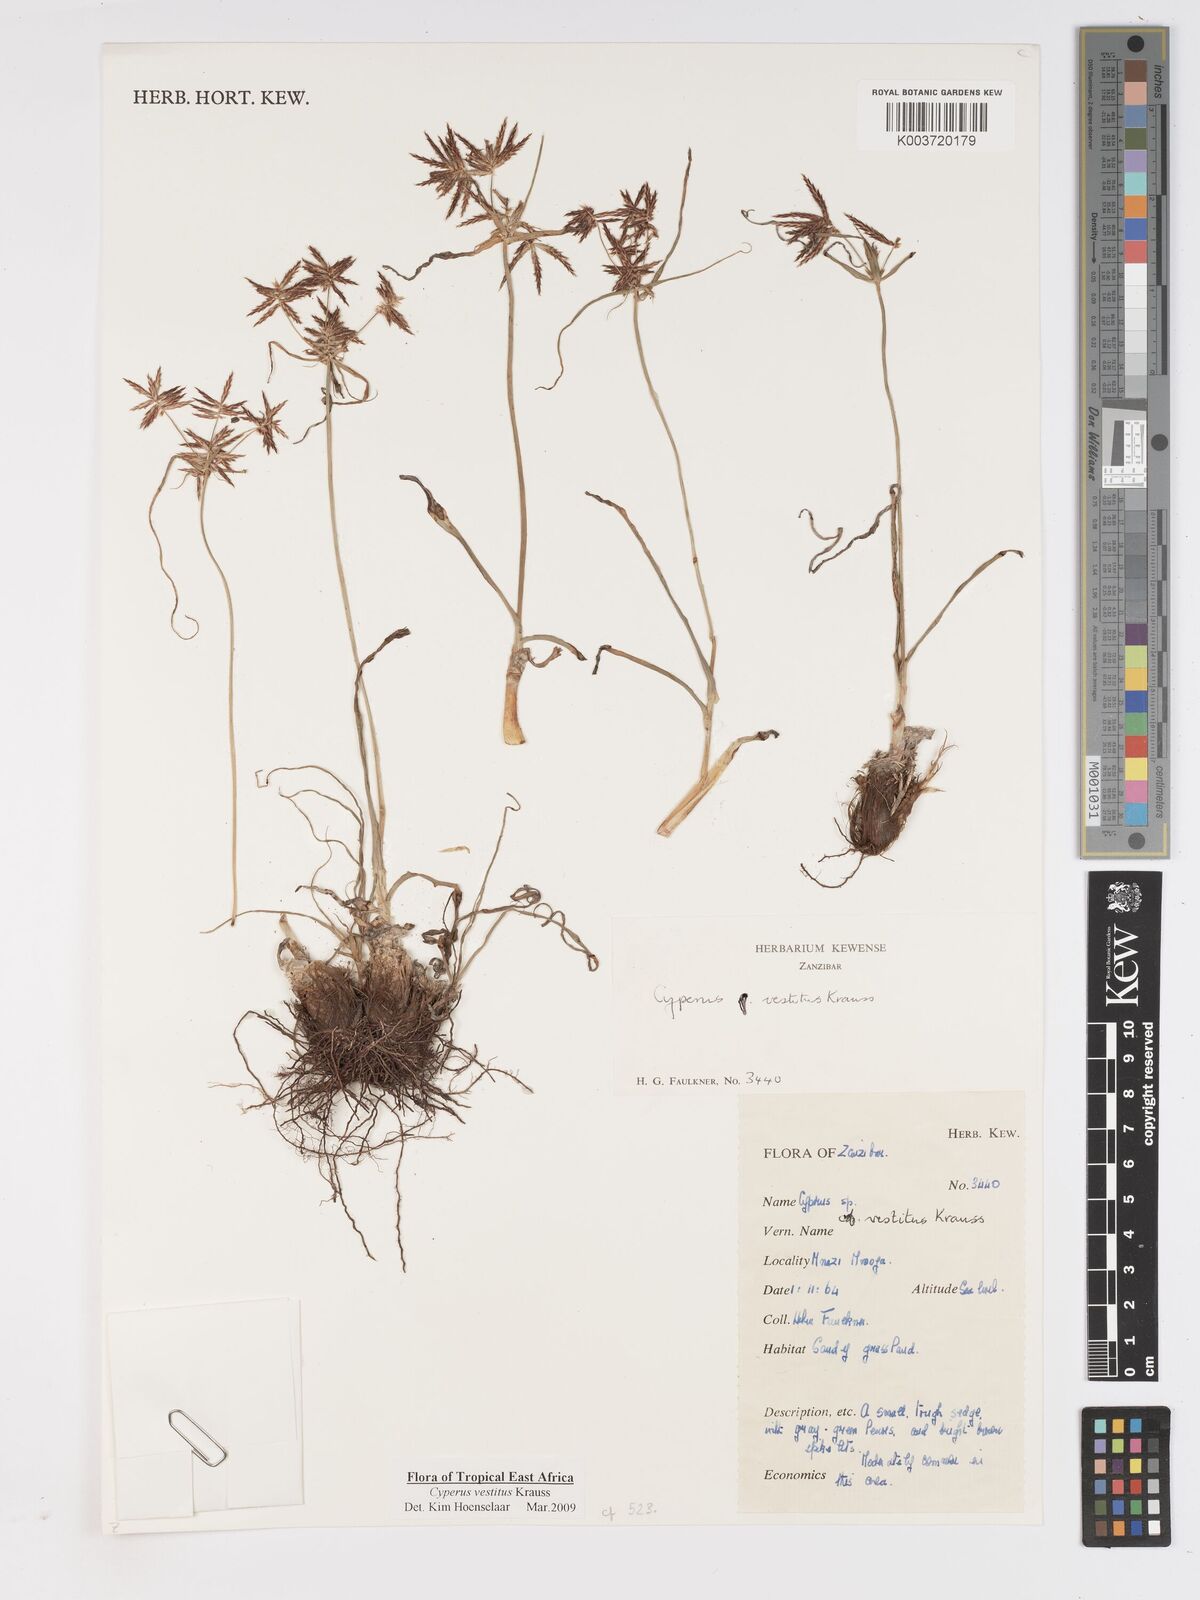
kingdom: Plantae
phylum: Tracheophyta
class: Liliopsida
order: Poales
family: Cyperaceae
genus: Cyperus
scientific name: Cyperus vestitus
